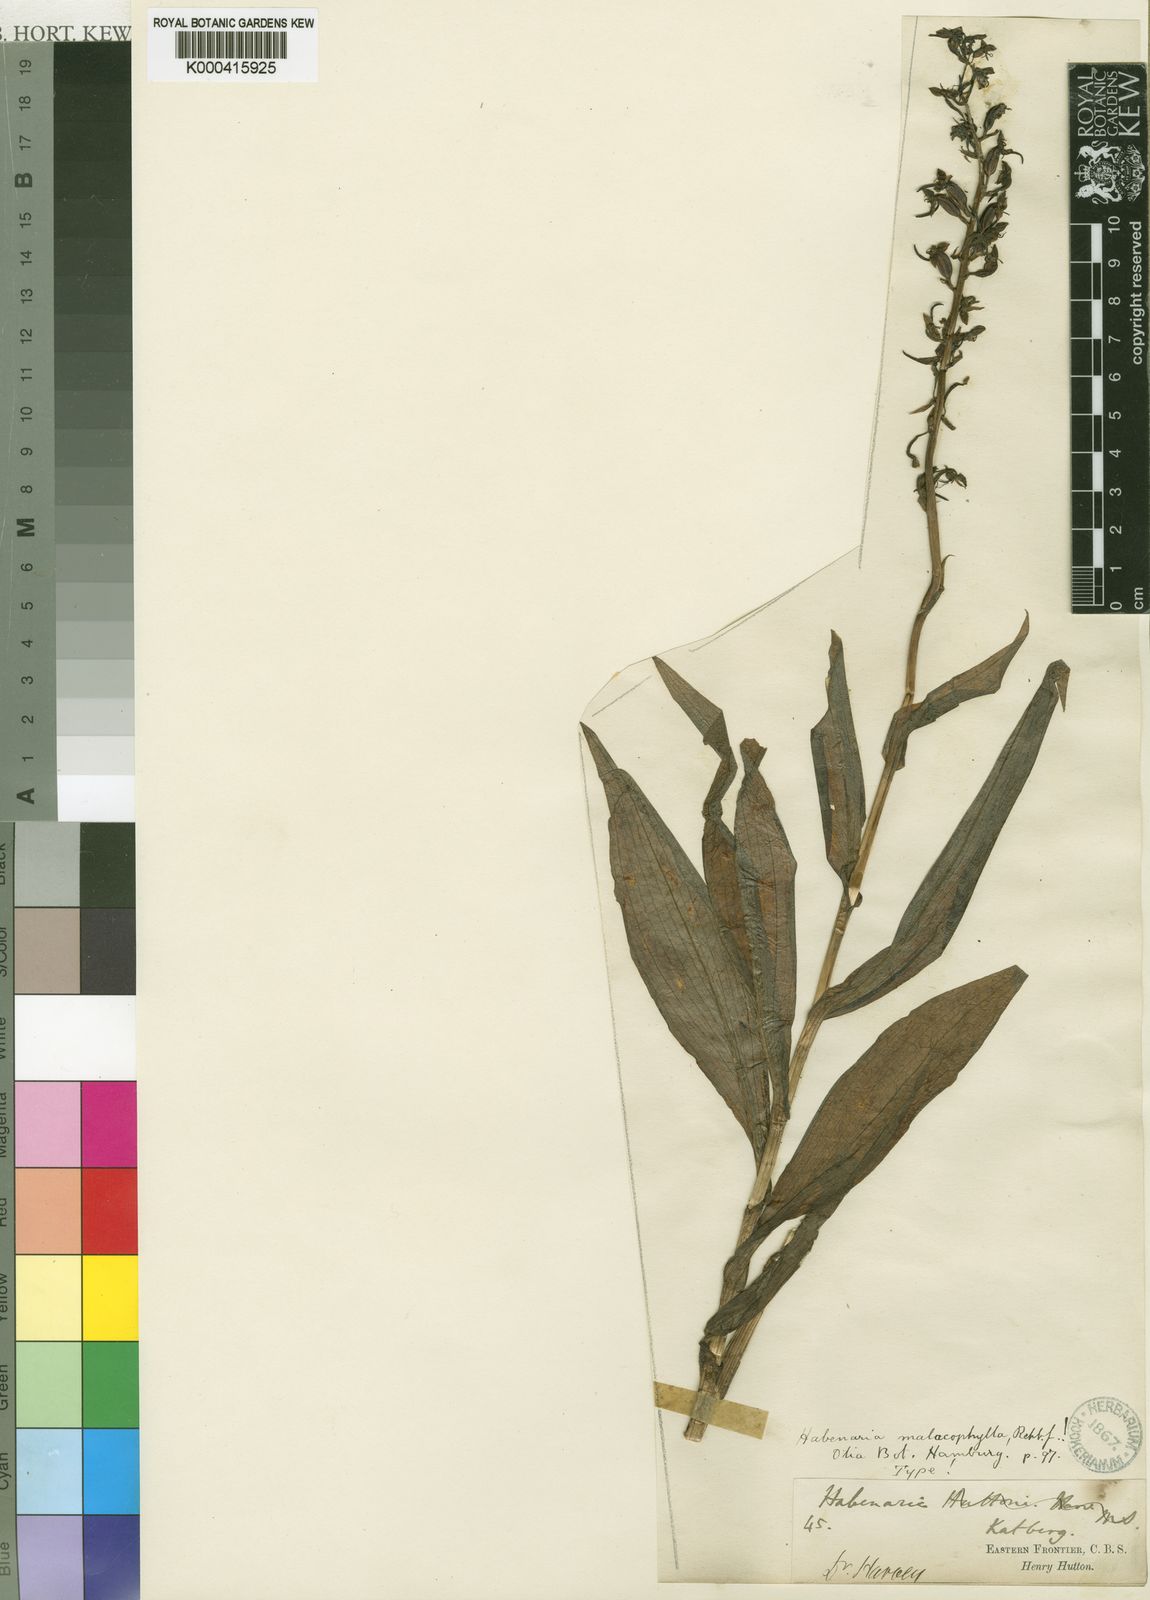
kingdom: Plantae
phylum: Tracheophyta
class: Liliopsida
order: Asparagales
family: Orchidaceae
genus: Habenaria
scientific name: Habenaria malacophylla
